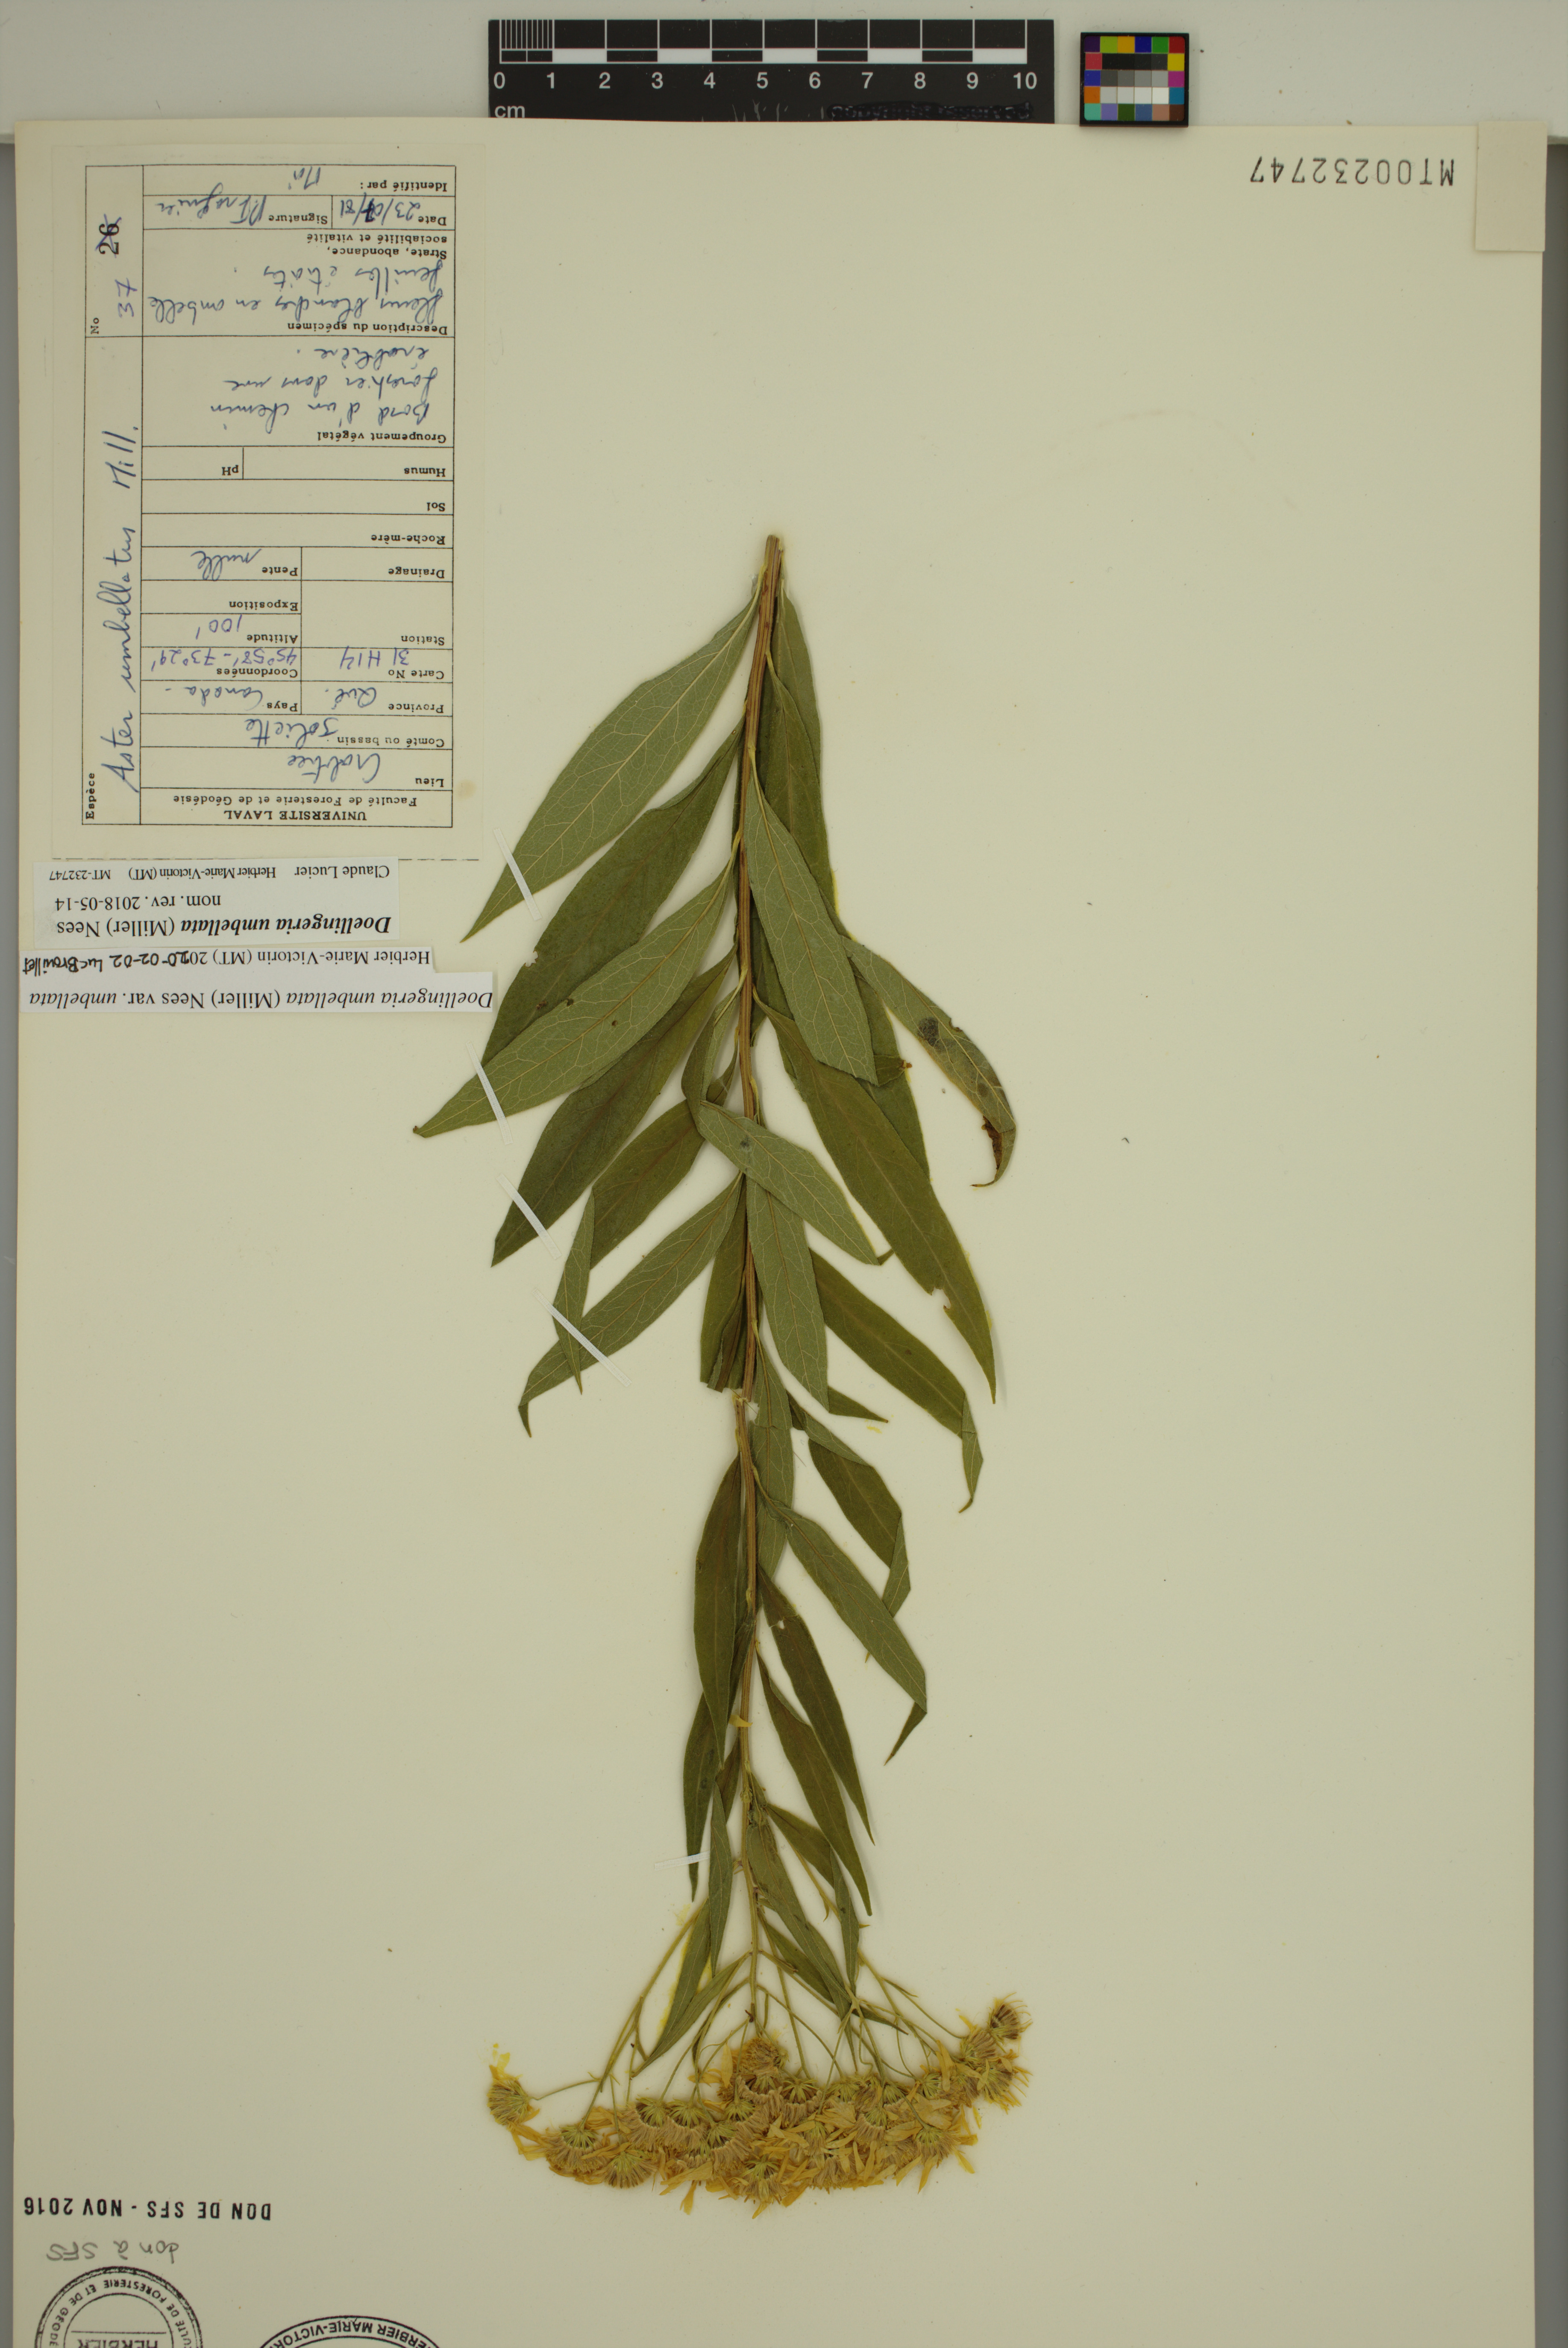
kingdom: Plantae
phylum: Tracheophyta
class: Magnoliopsida
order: Asterales
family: Asteraceae
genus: Doellingeria
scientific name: Doellingeria umbellata
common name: Flat-top white aster
